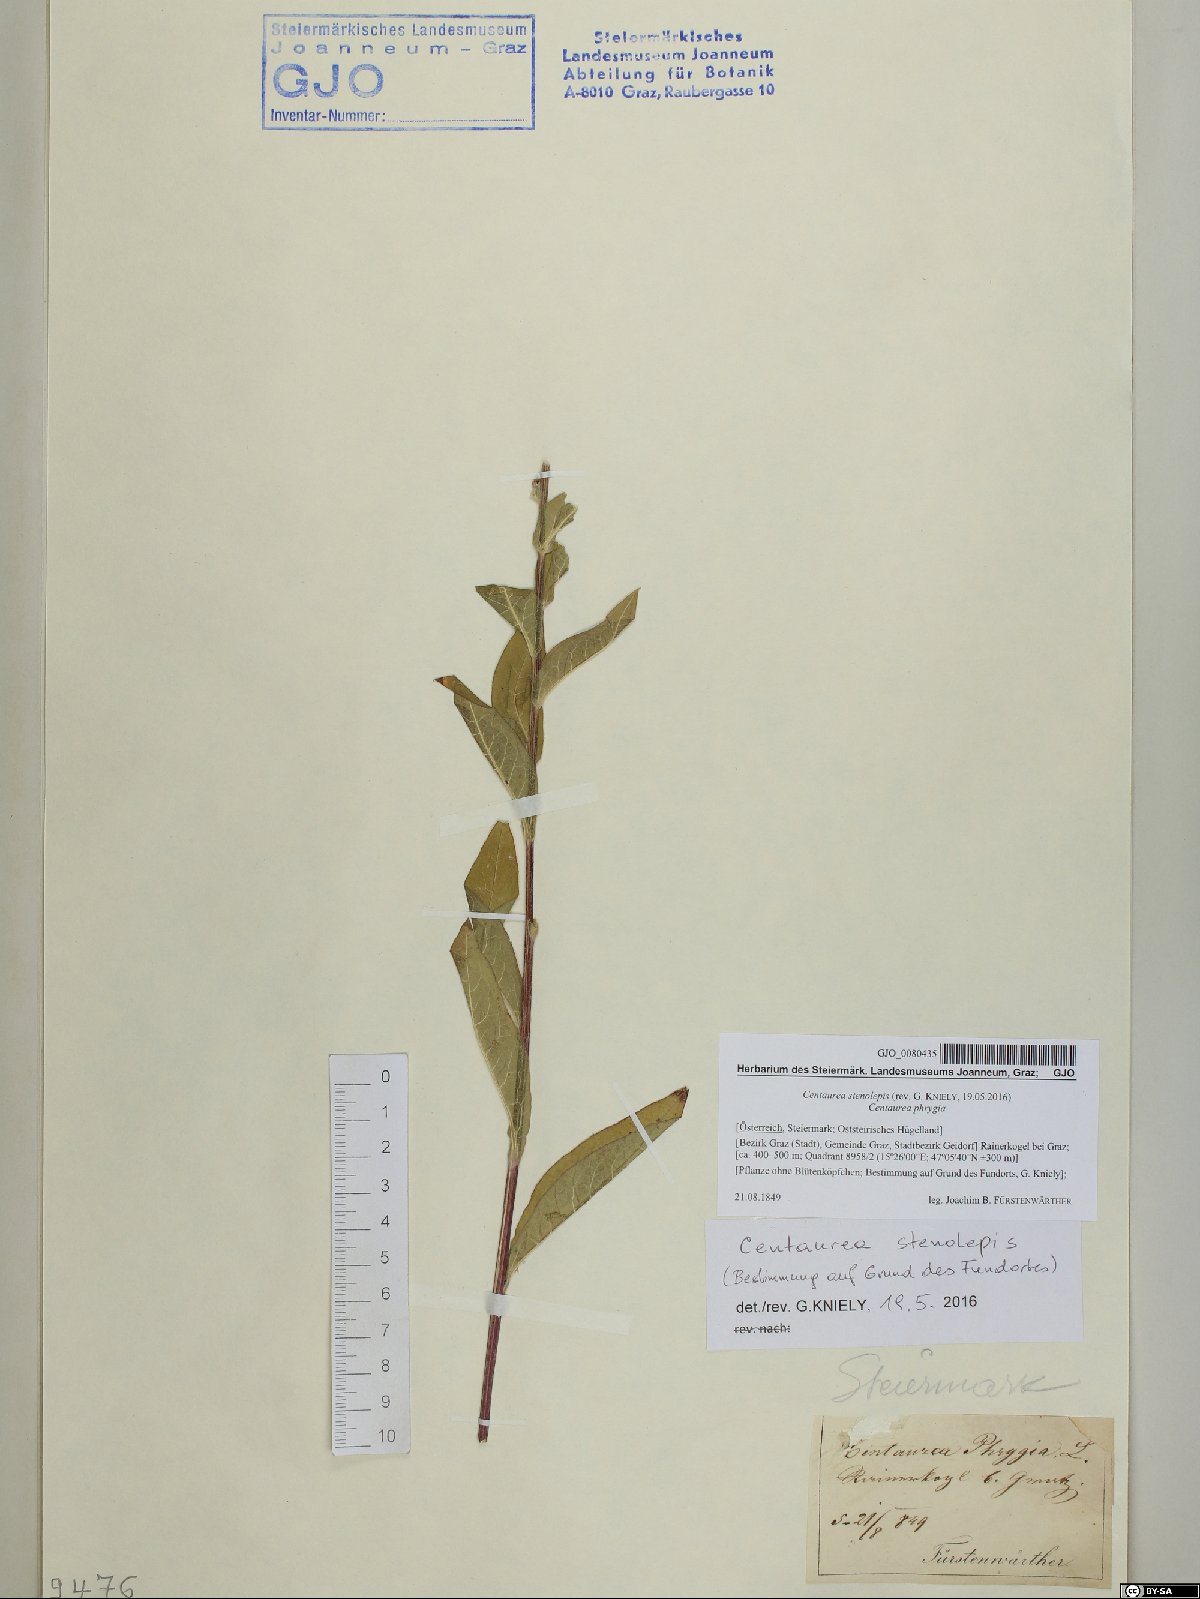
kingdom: Plantae
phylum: Tracheophyta
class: Magnoliopsida
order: Asterales
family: Asteraceae
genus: Centaurea
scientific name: Centaurea stenolepis
